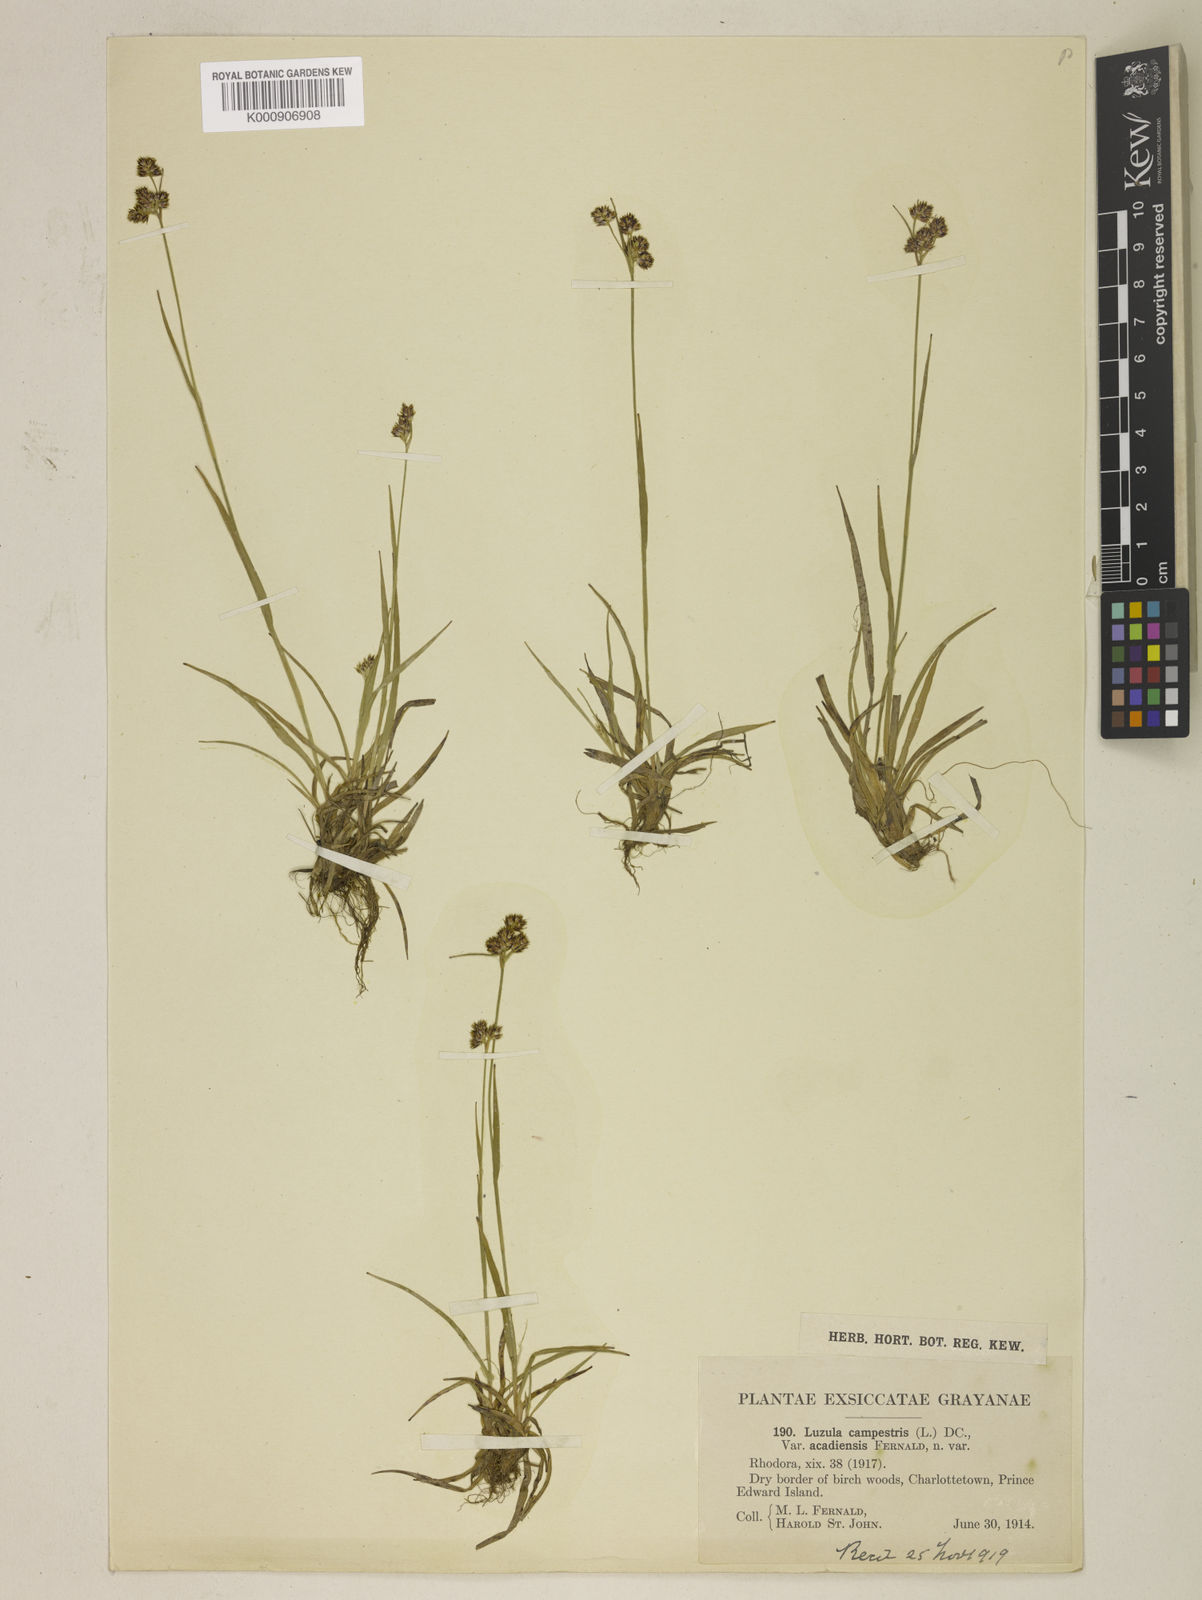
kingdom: Plantae
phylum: Tracheophyta
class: Liliopsida
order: Poales
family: Juncaceae
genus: Luzula
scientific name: Luzula multiflora
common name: Heath wood-rush
